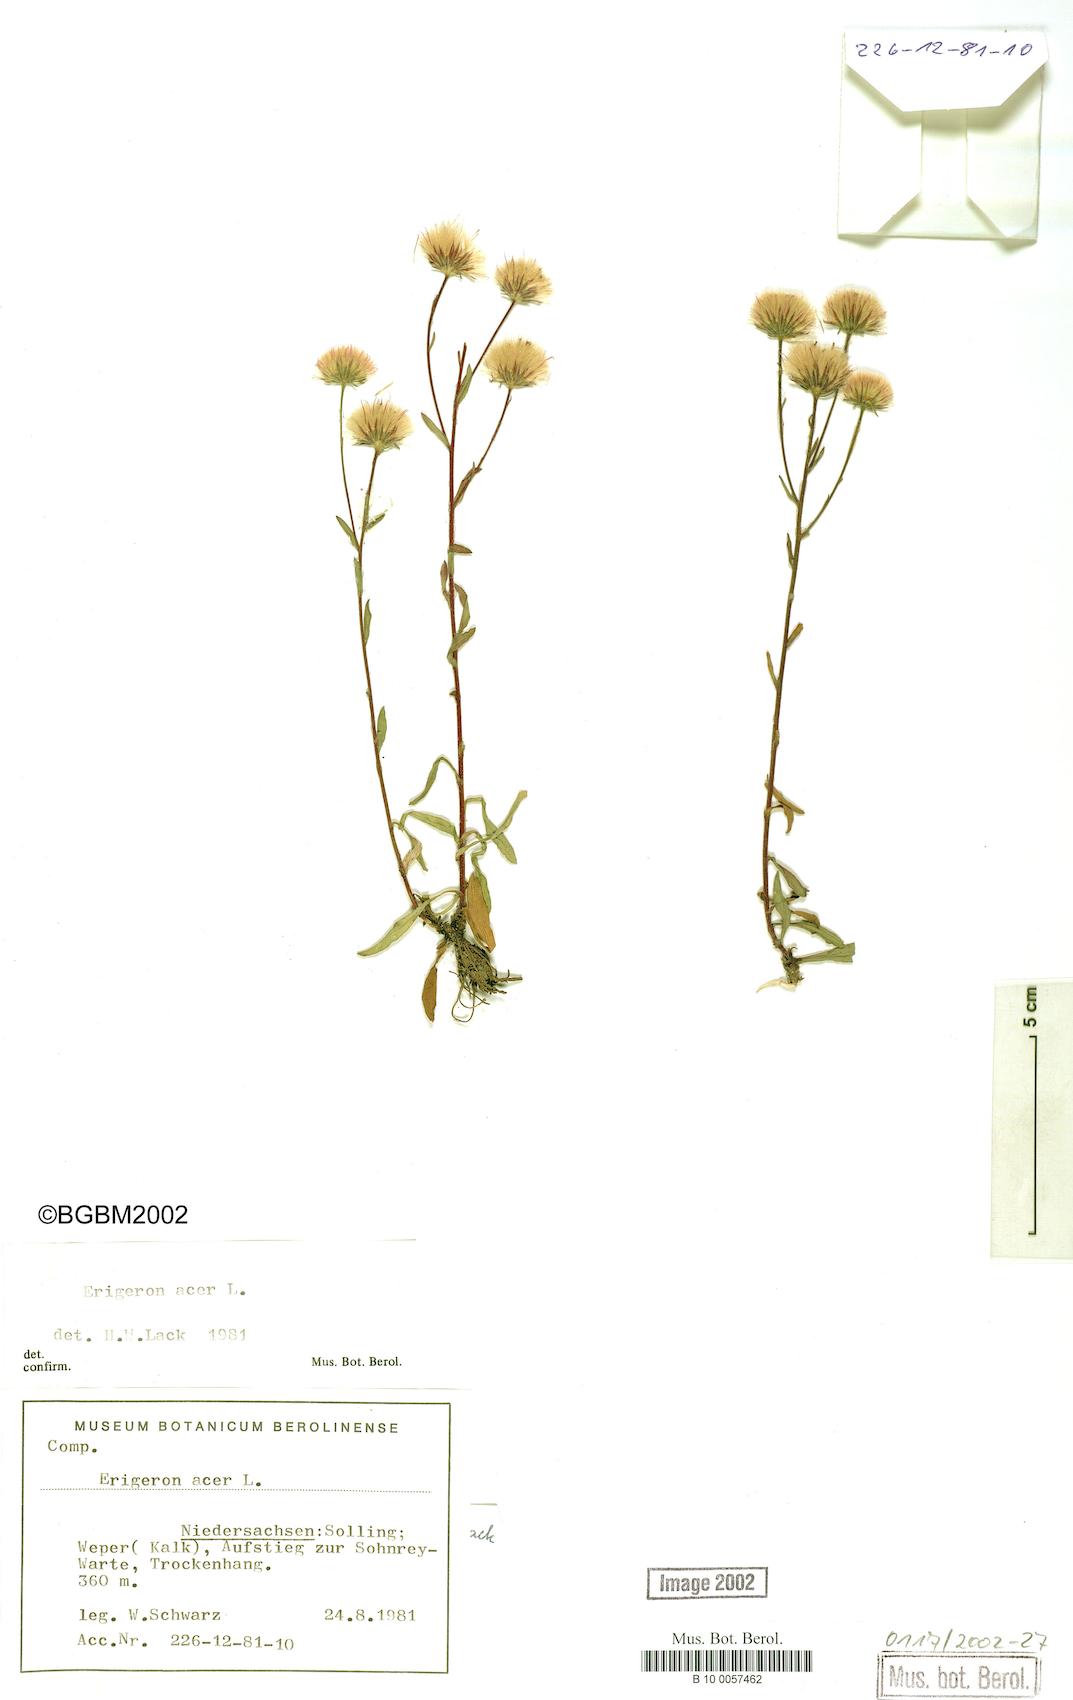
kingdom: Plantae
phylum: Tracheophyta
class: Magnoliopsida
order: Asterales
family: Asteraceae
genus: Erigeron
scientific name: Erigeron muralis
